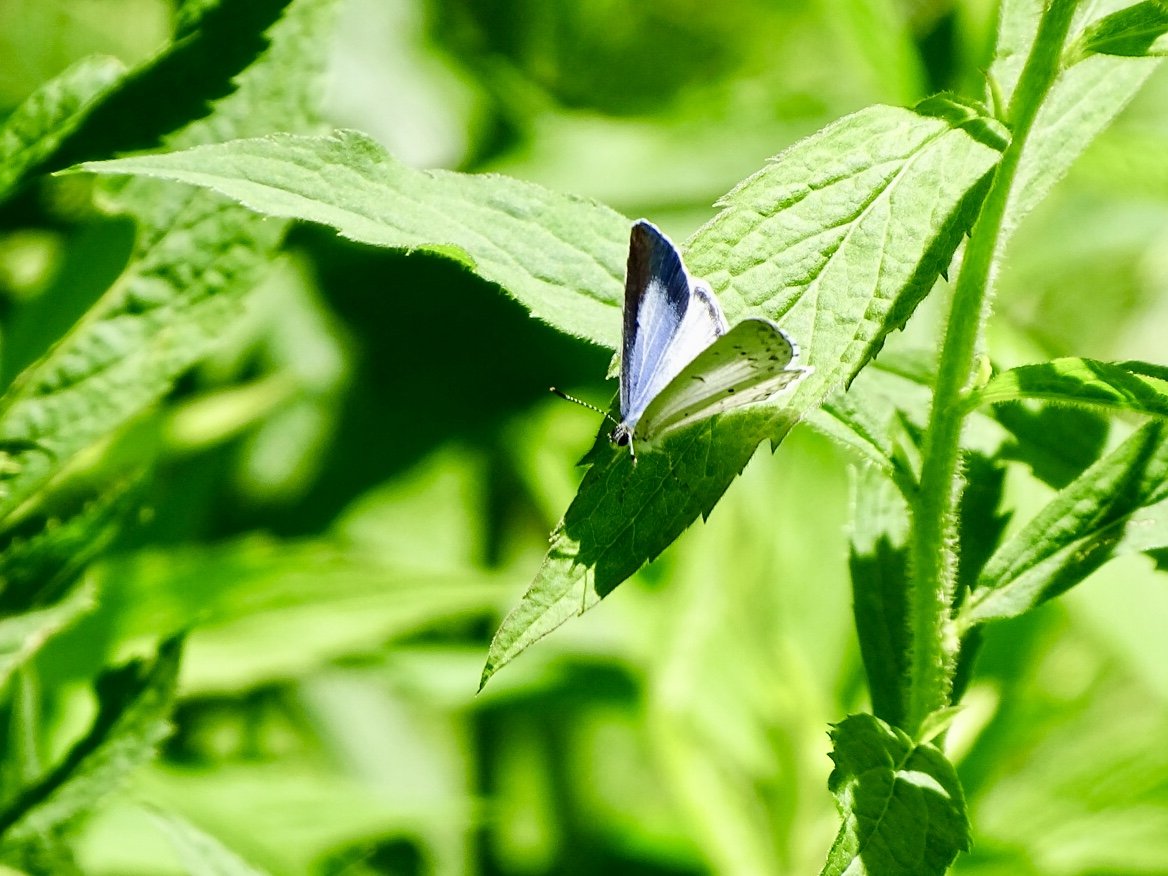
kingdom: Animalia
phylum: Arthropoda
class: Insecta
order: Lepidoptera
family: Lycaenidae
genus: Cyaniris
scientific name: Cyaniris neglecta
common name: Summer Azure
